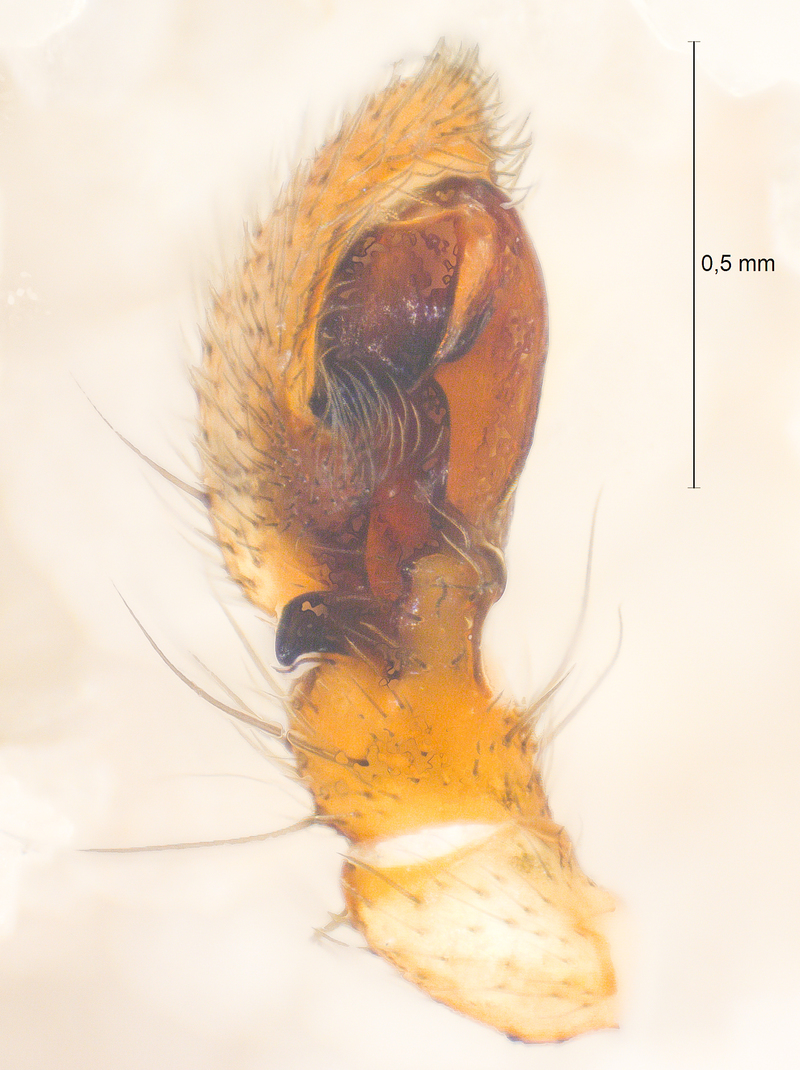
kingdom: Animalia
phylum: Arthropoda
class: Arachnida
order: Araneae
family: Thomisidae
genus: Tmarus
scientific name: Tmarus piger
